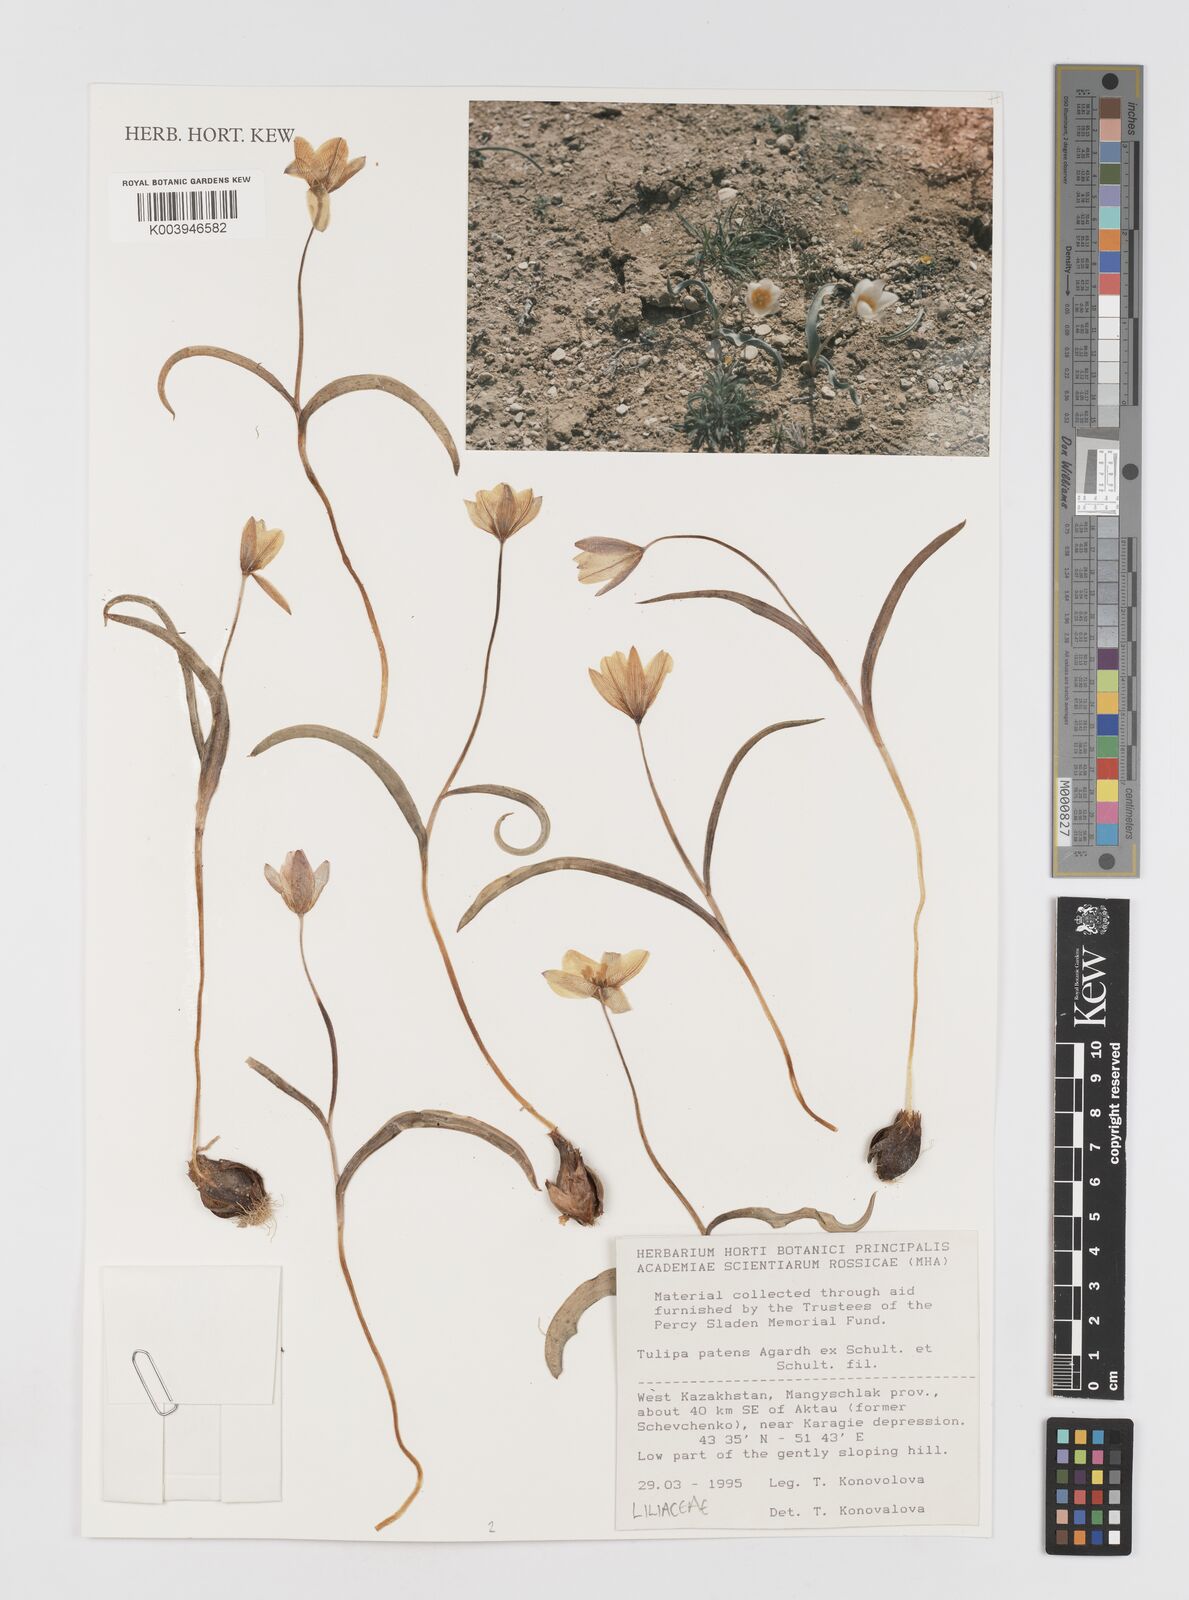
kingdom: Plantae
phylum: Tracheophyta
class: Liliopsida
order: Liliales
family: Liliaceae
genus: Tulipa
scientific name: Tulipa sylvestris
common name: Wild tulip
